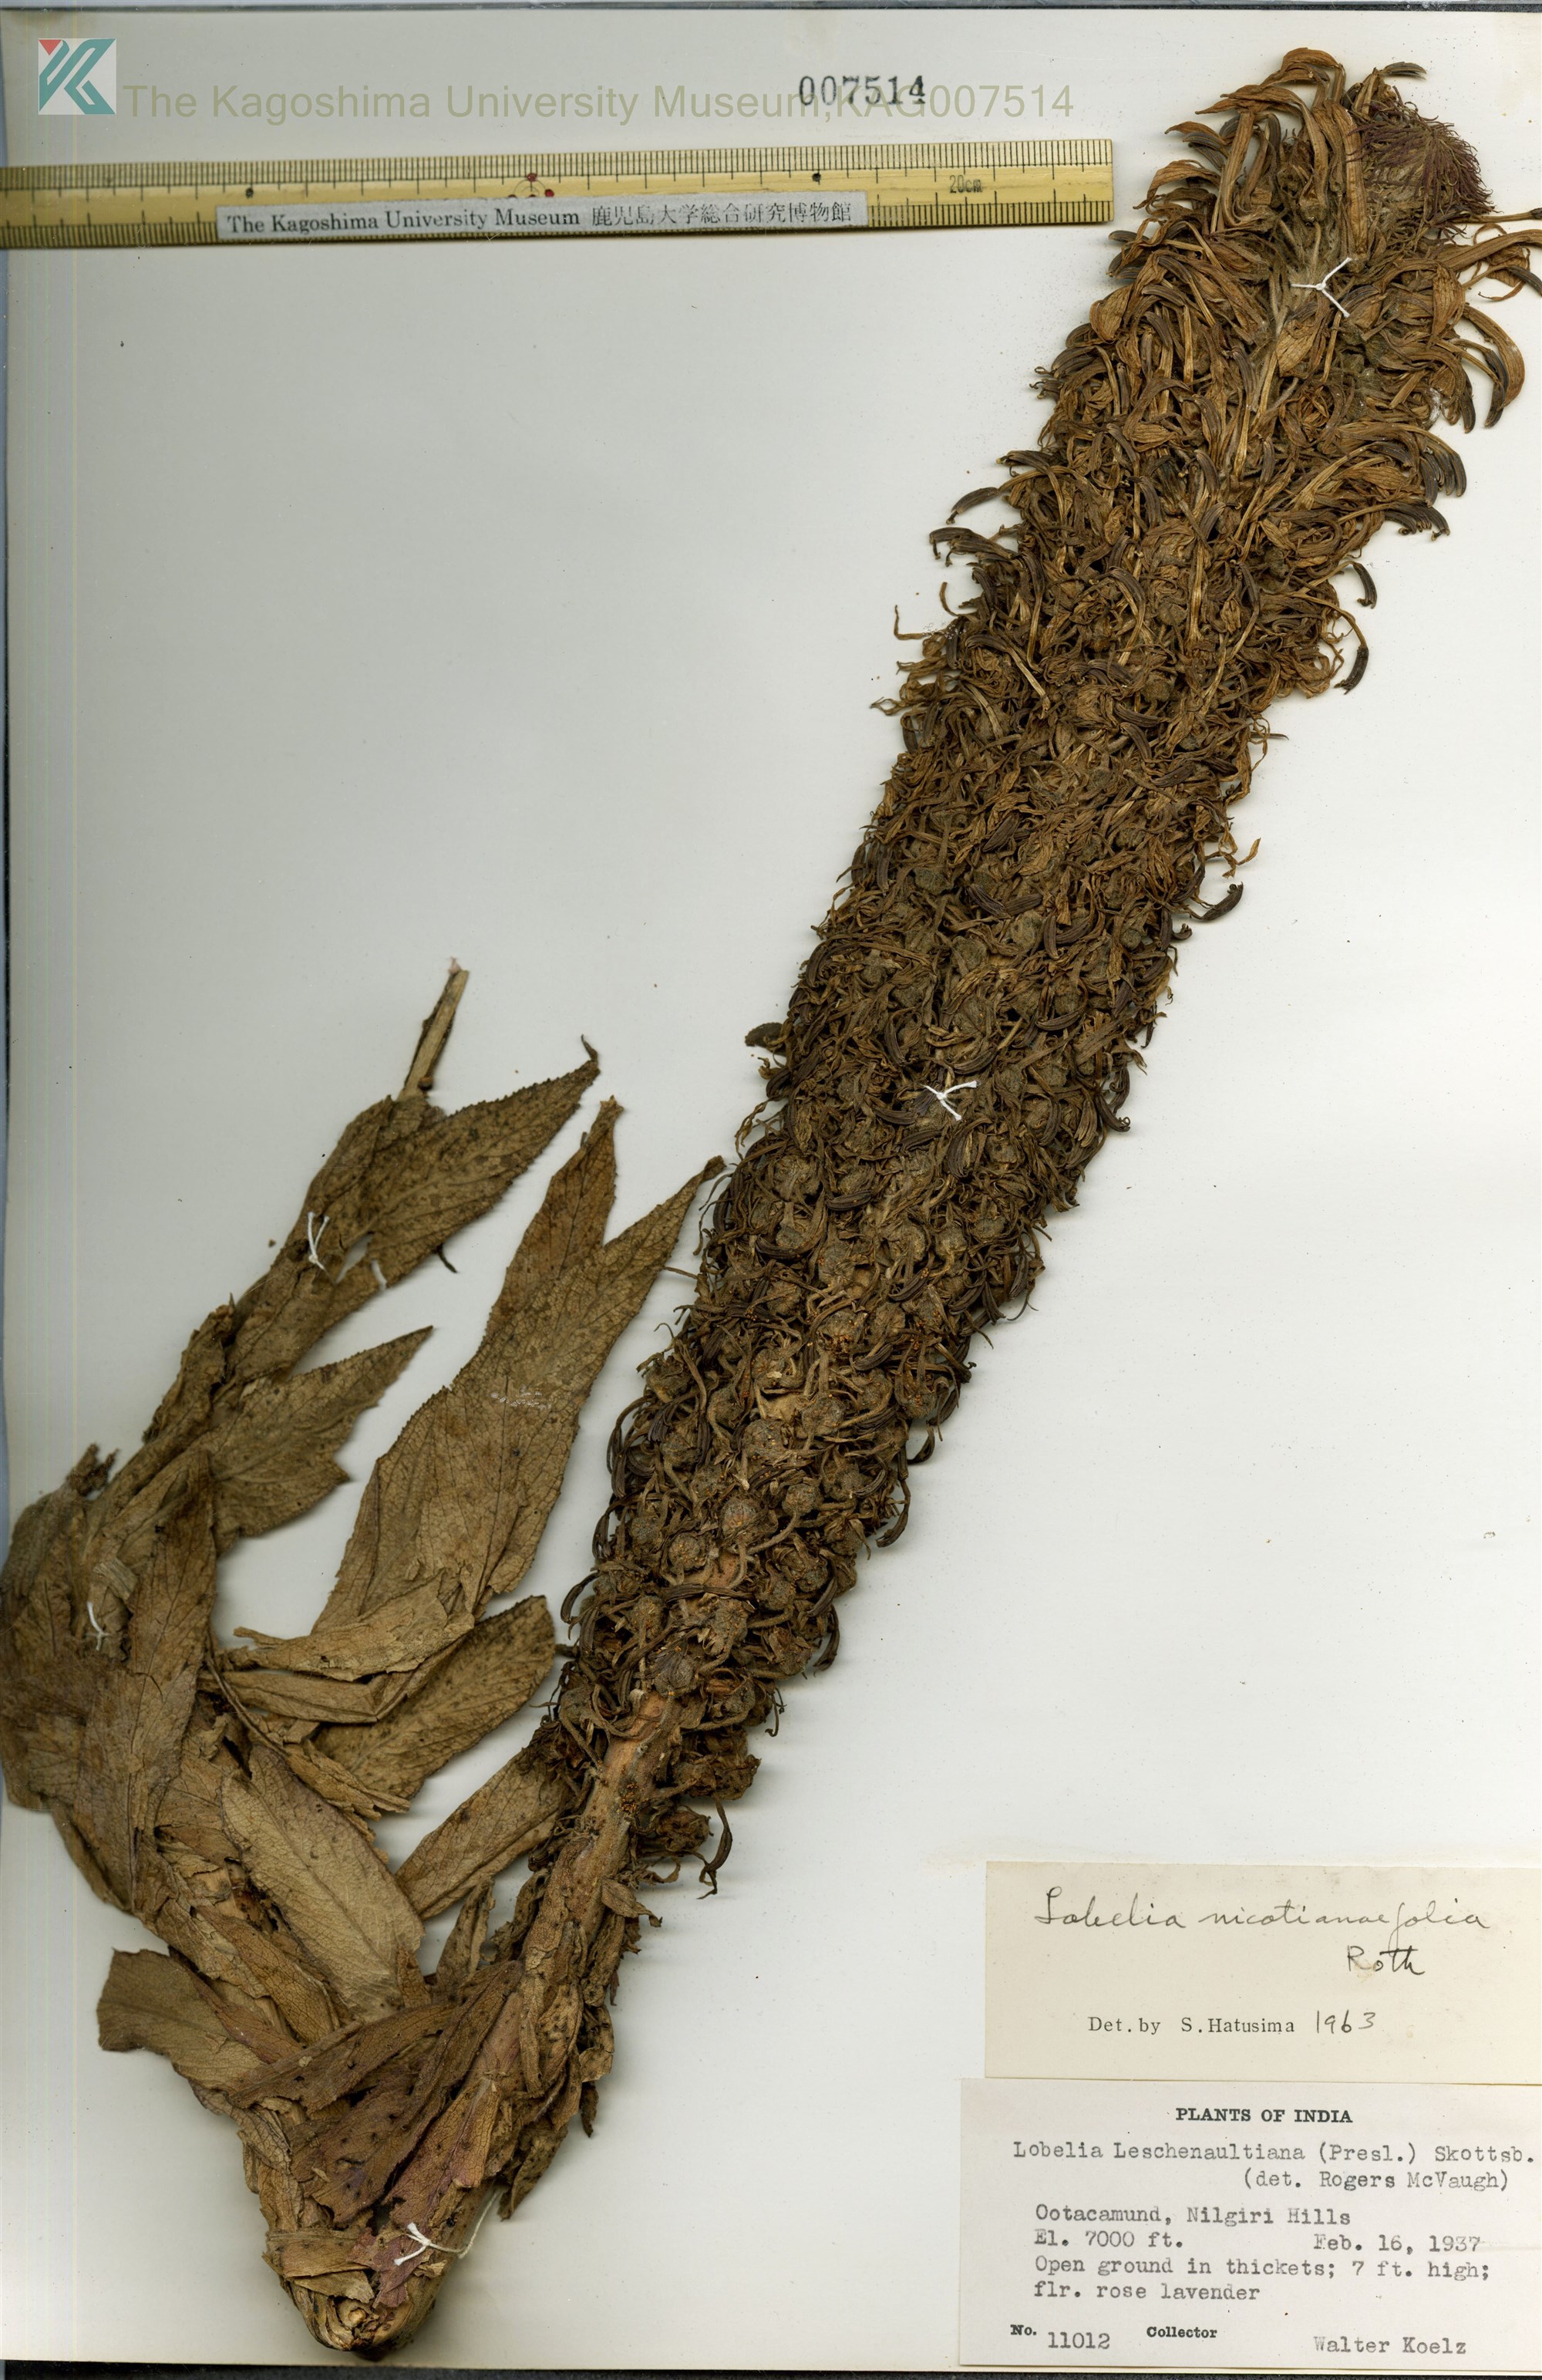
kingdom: Plantae
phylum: Tracheophyta
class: Magnoliopsida
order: Asterales
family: Campanulaceae
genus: Lobelia
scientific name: Lobelia
